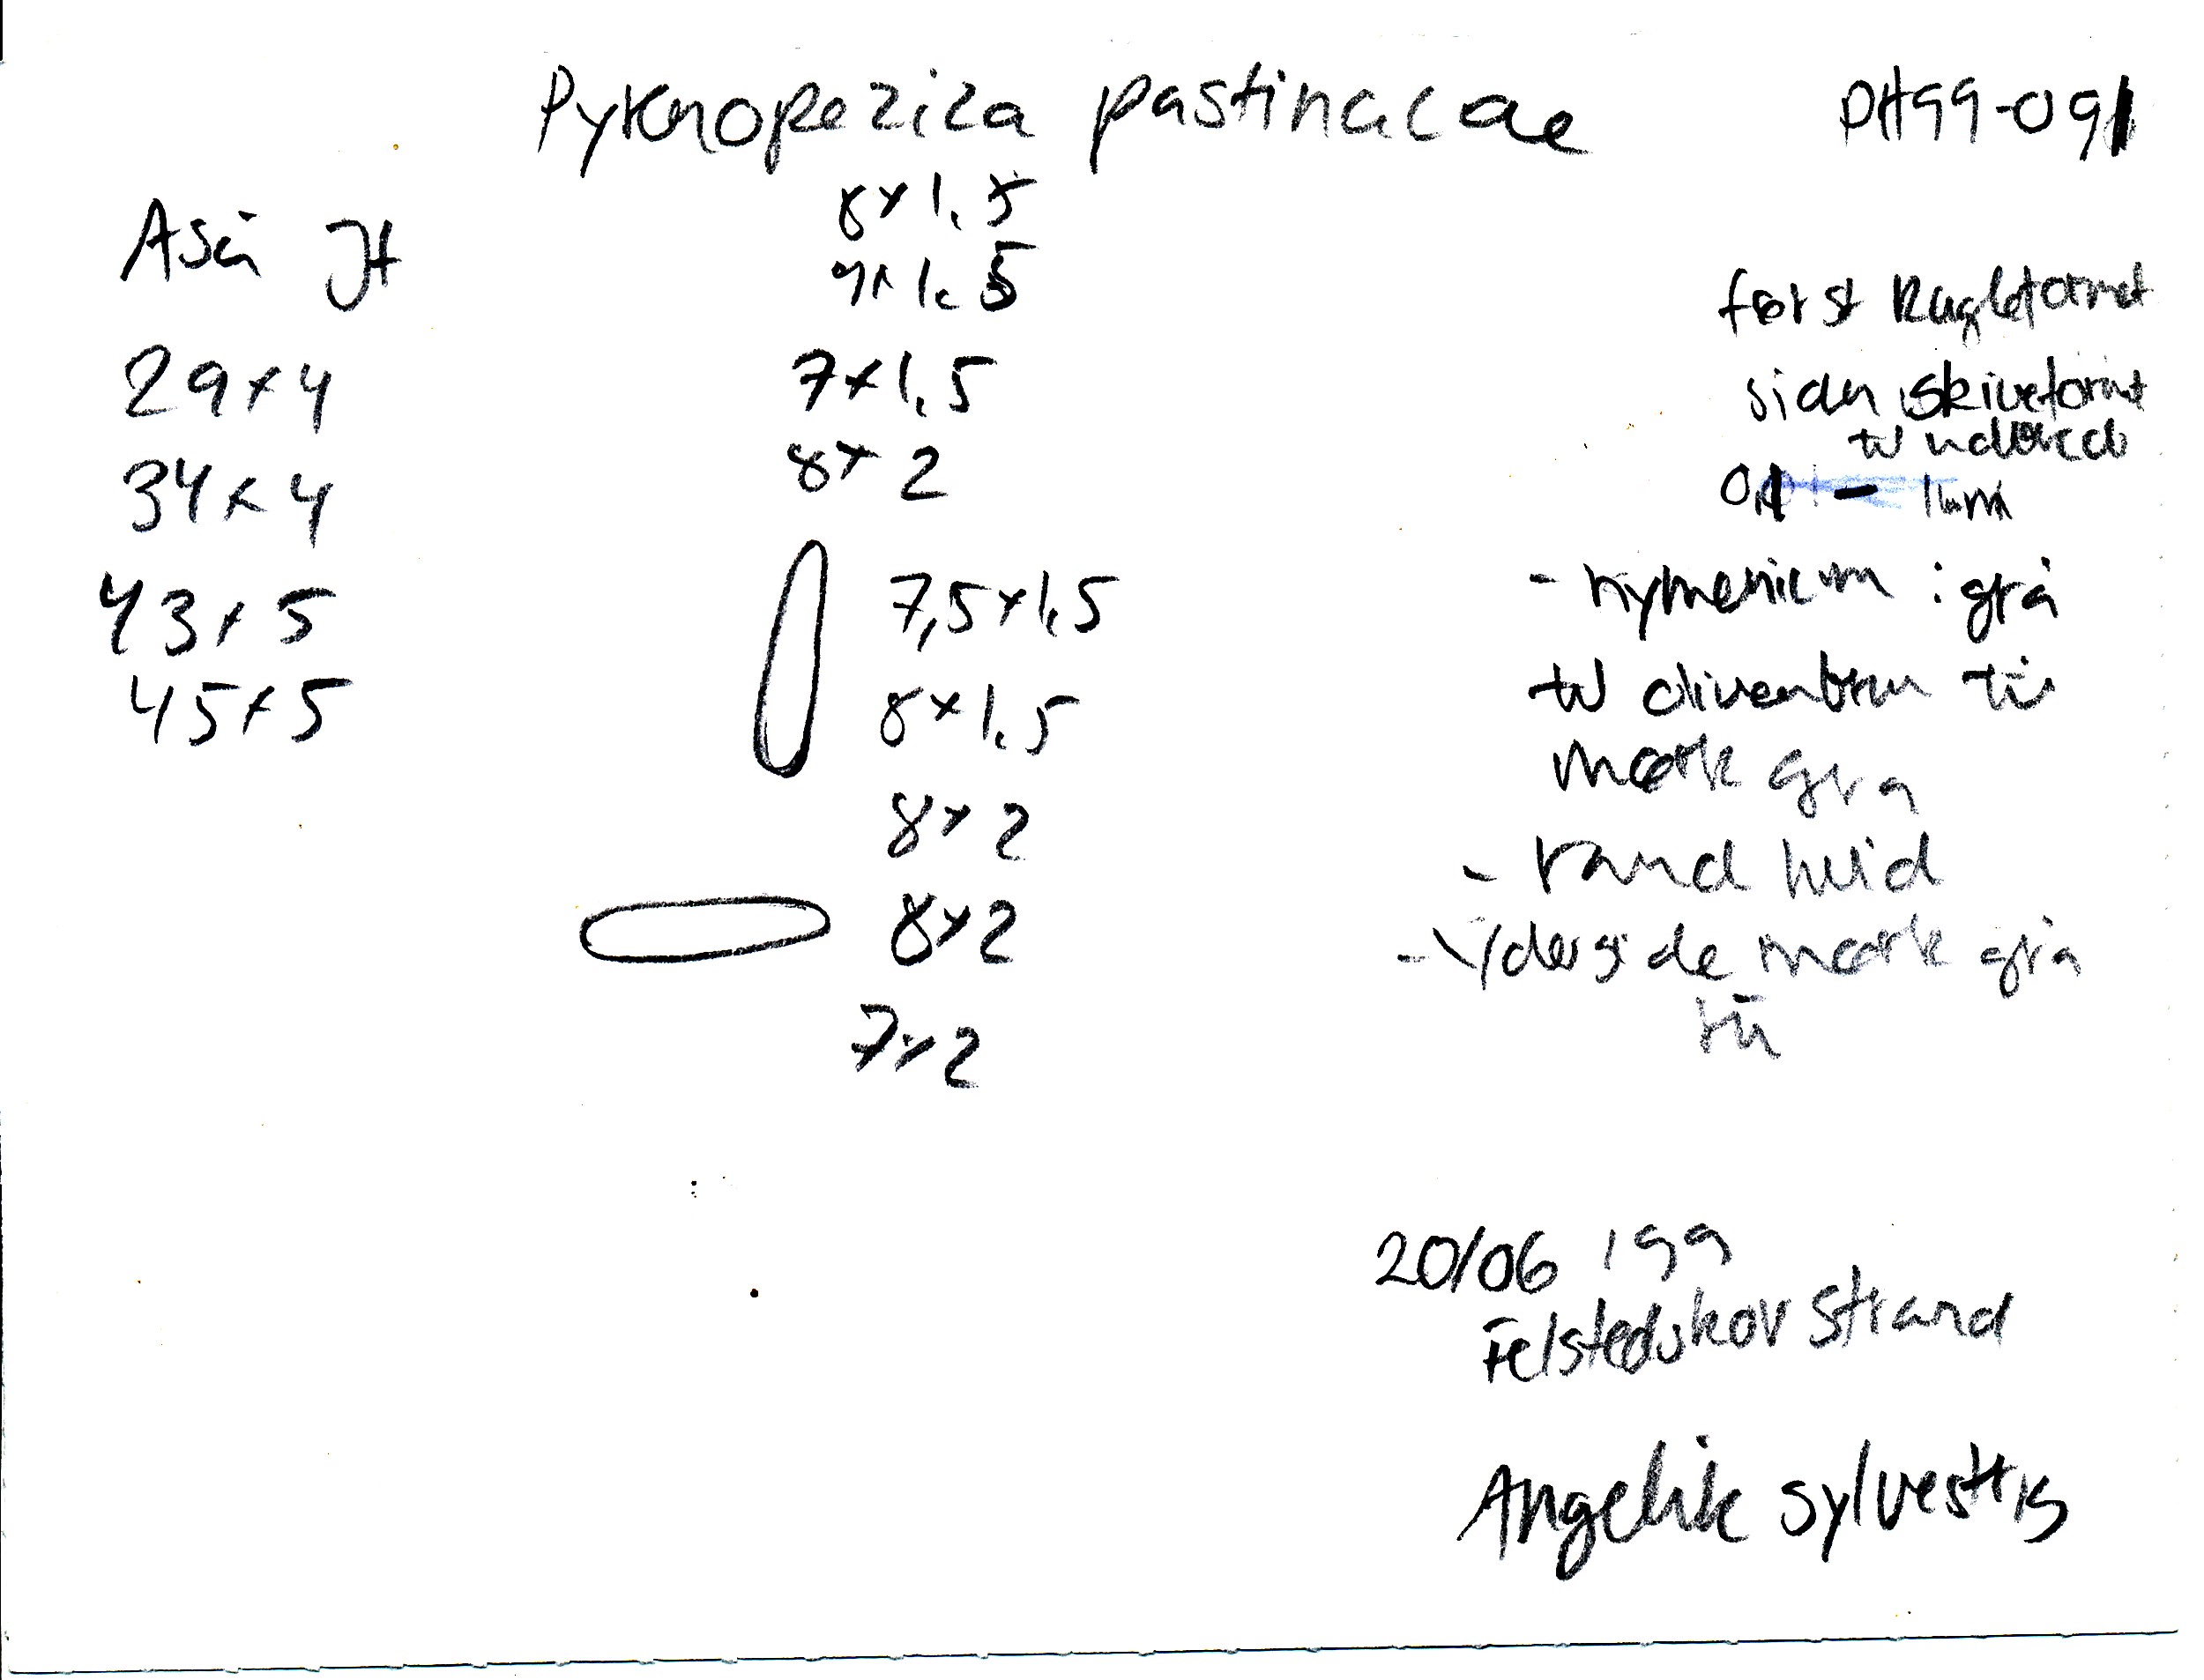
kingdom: Fungi
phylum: Ascomycota
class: Leotiomycetes
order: Helotiales
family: Ploettnerulaceae
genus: Pyrenopeziza
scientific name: Pyrenopeziza pastinacae
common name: stængel-kerneskive
